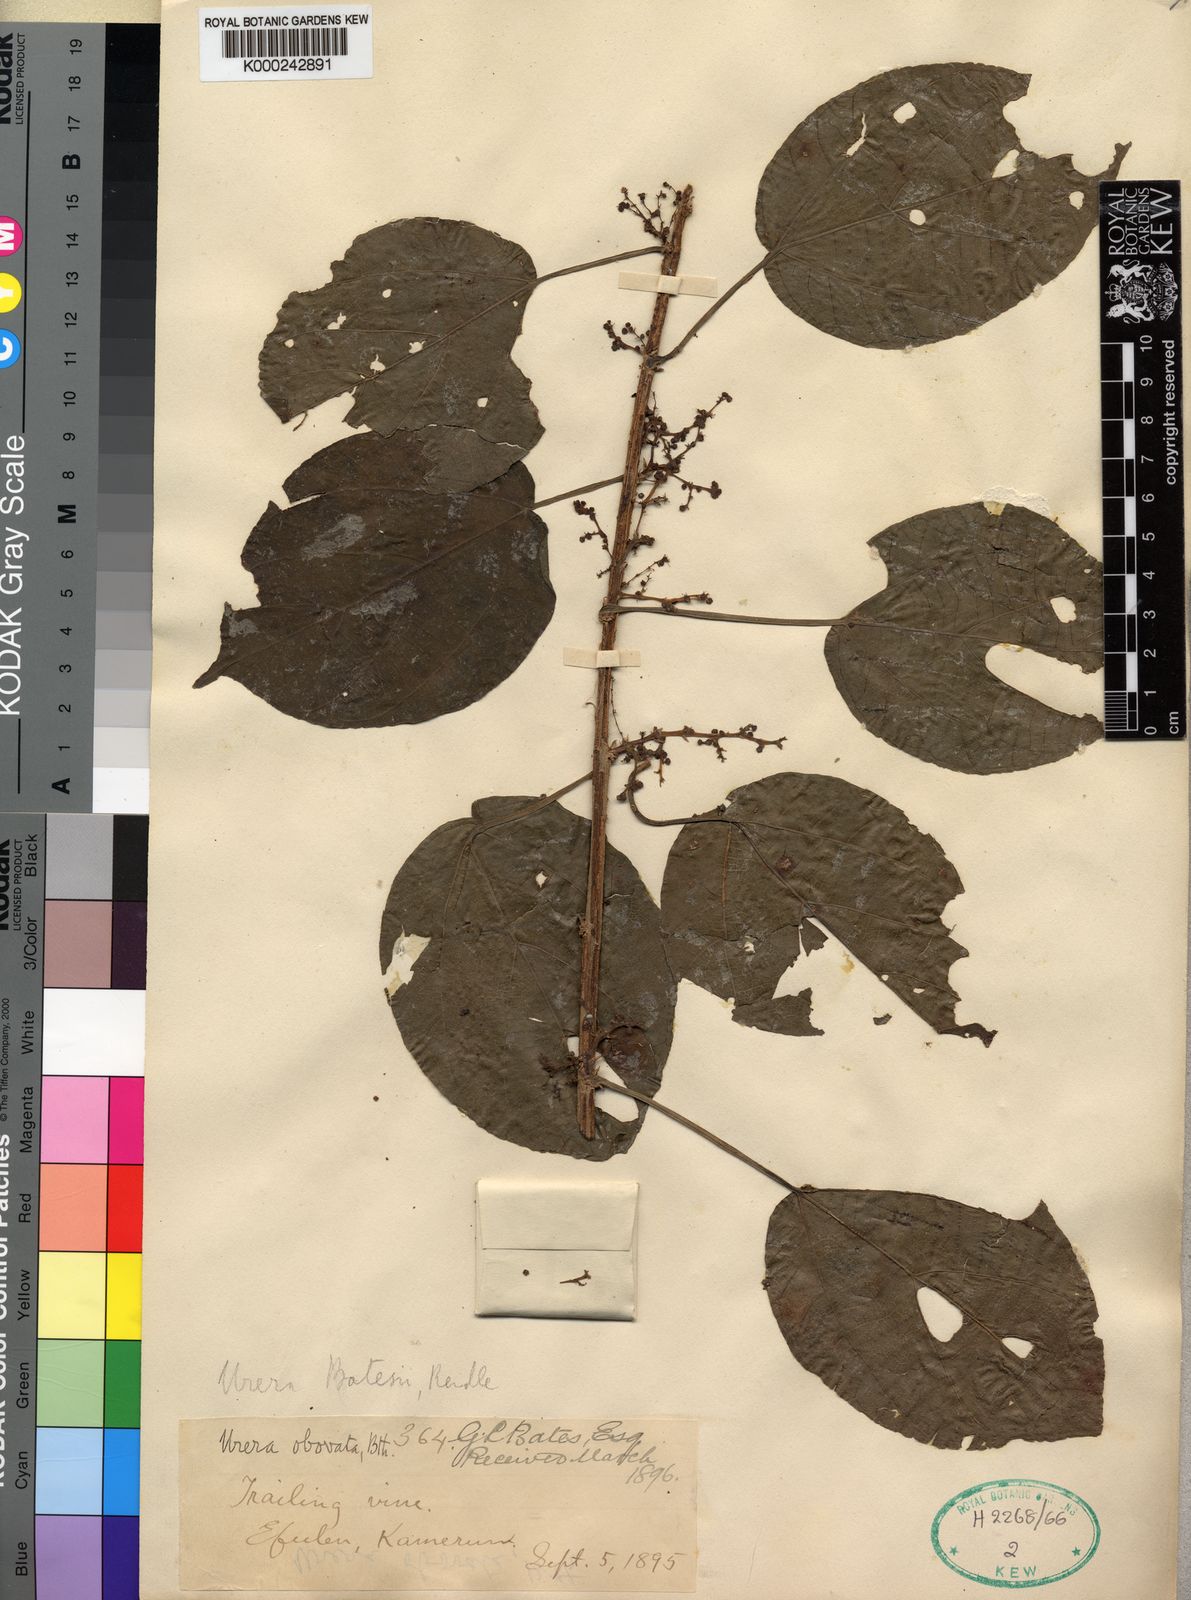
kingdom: Plantae
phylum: Tracheophyta
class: Magnoliopsida
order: Rosales
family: Urticaceae
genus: Scepocarpus
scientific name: Scepocarpus
